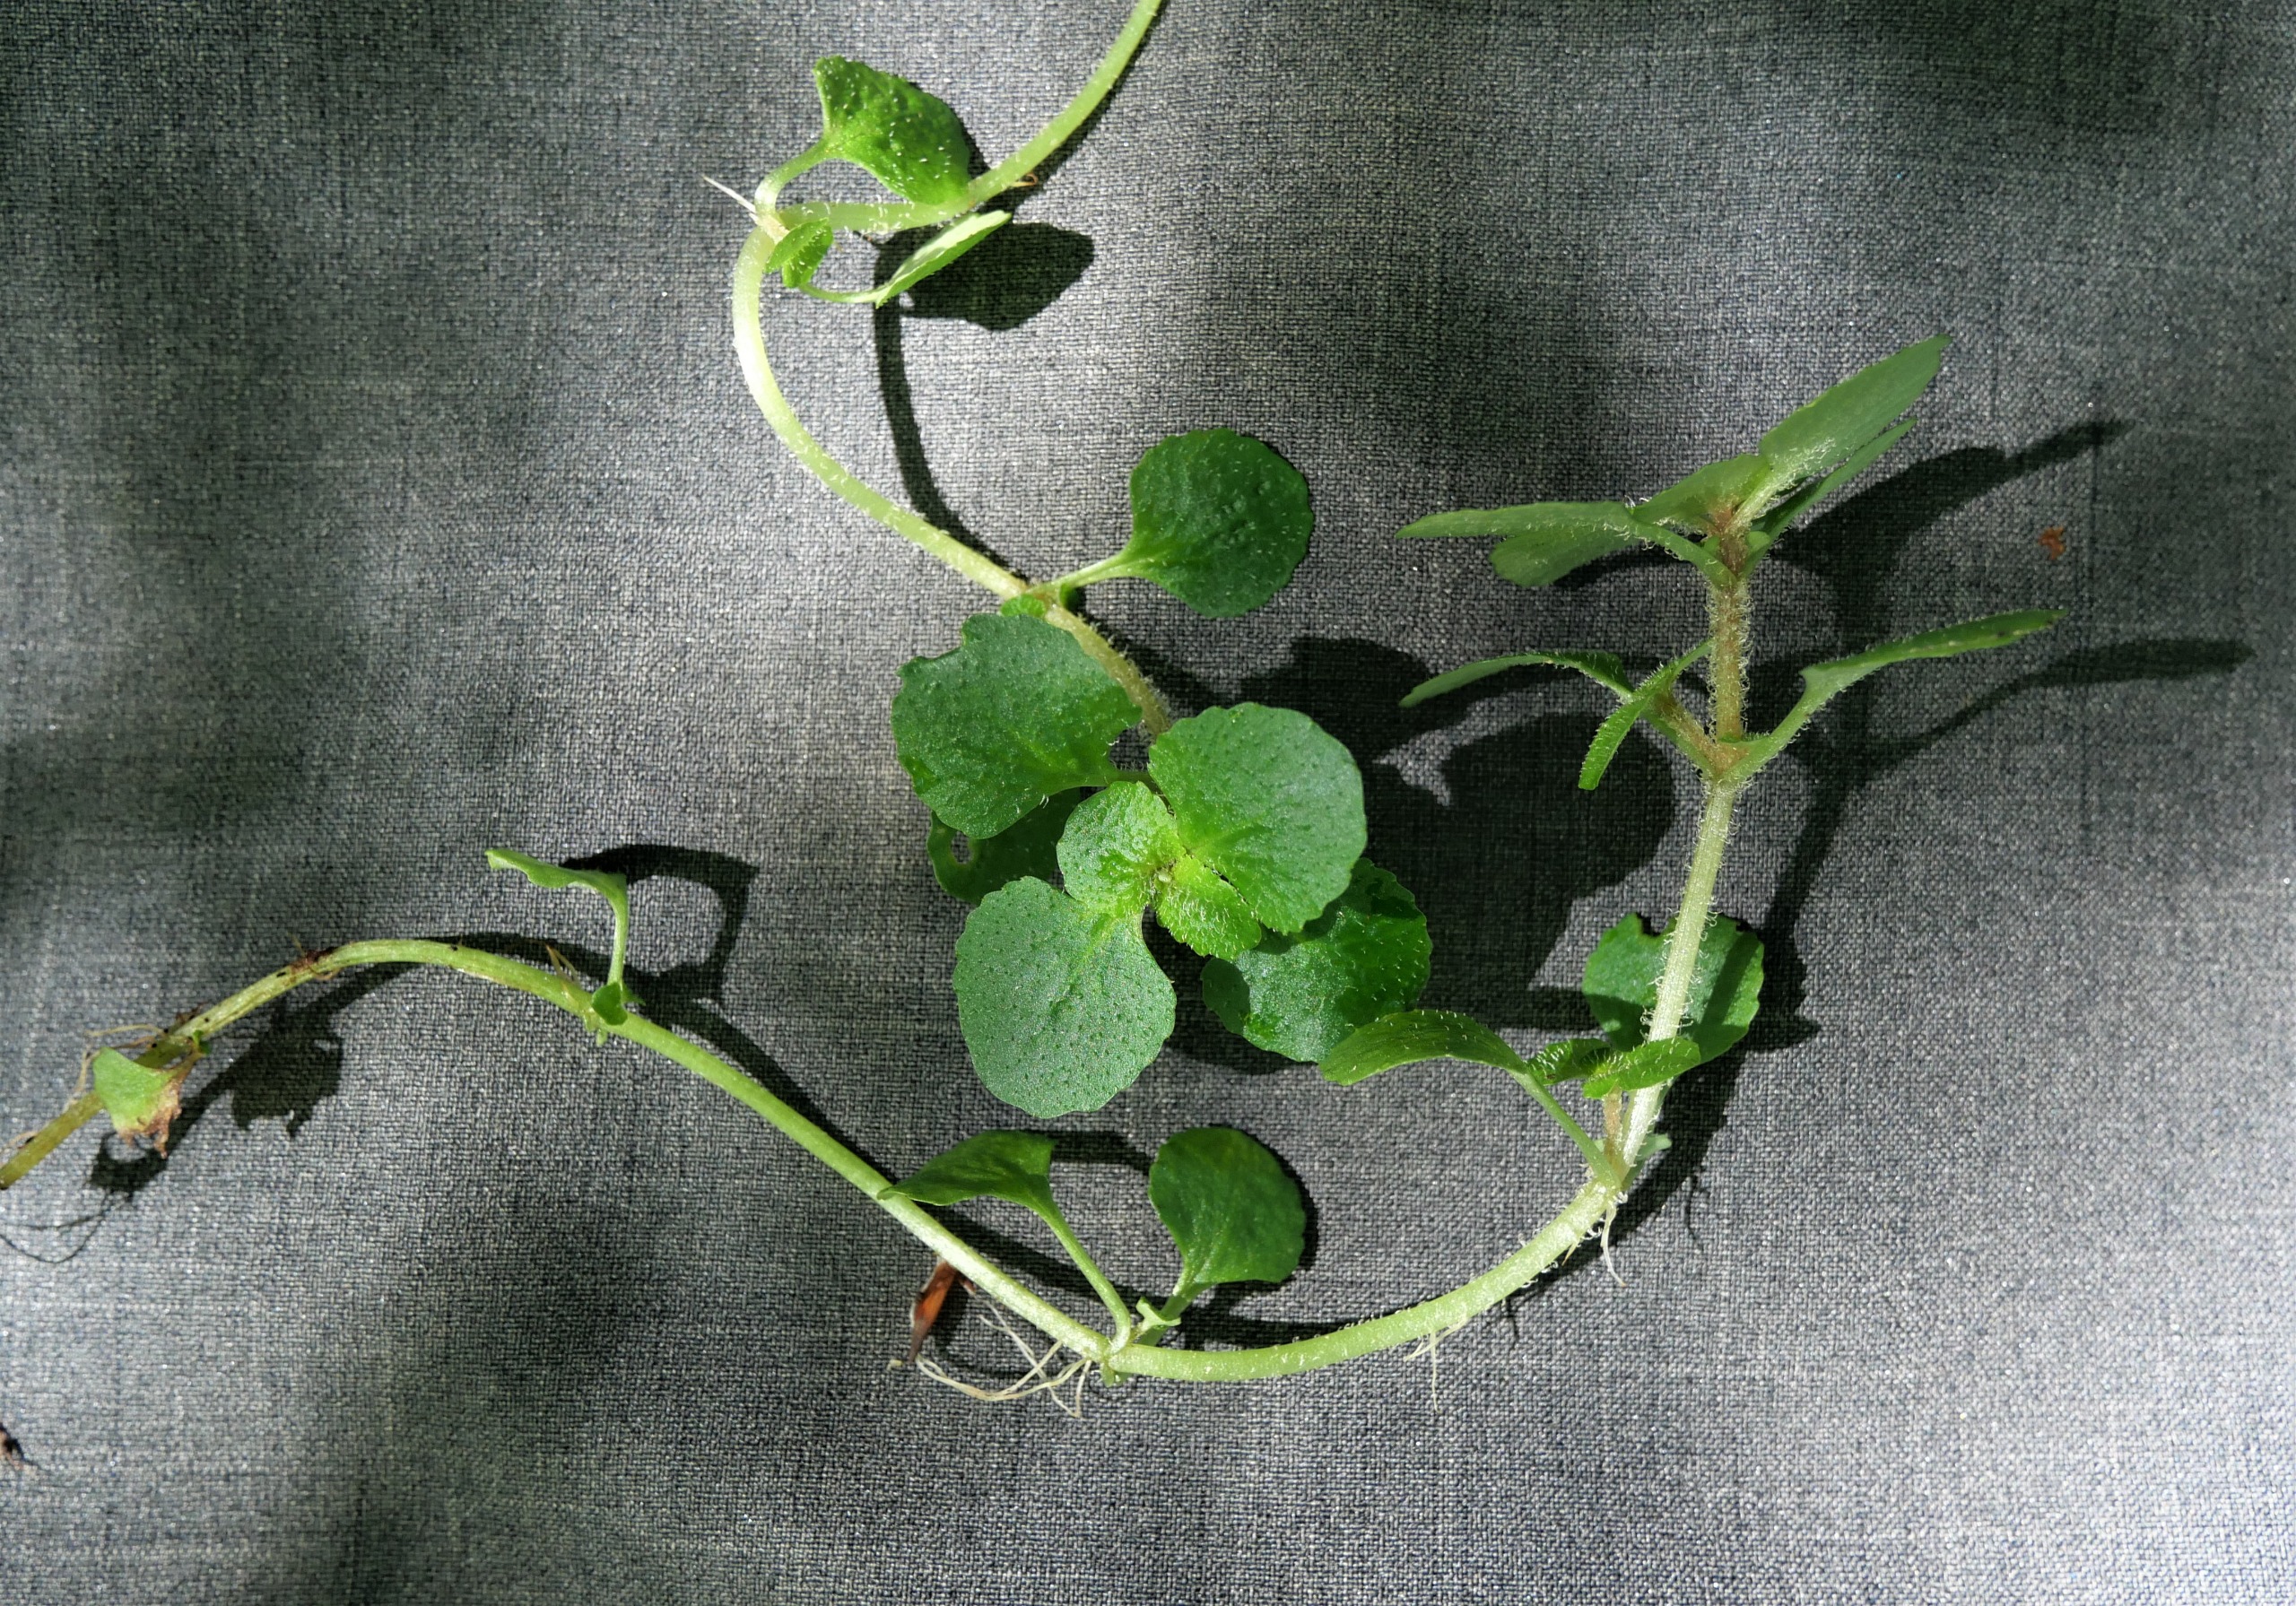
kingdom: Plantae
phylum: Tracheophyta
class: Magnoliopsida
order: Saxifragales
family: Saxifragaceae
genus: Chrysosplenium
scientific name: Chrysosplenium oppositifolium
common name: Småbladet milturt
